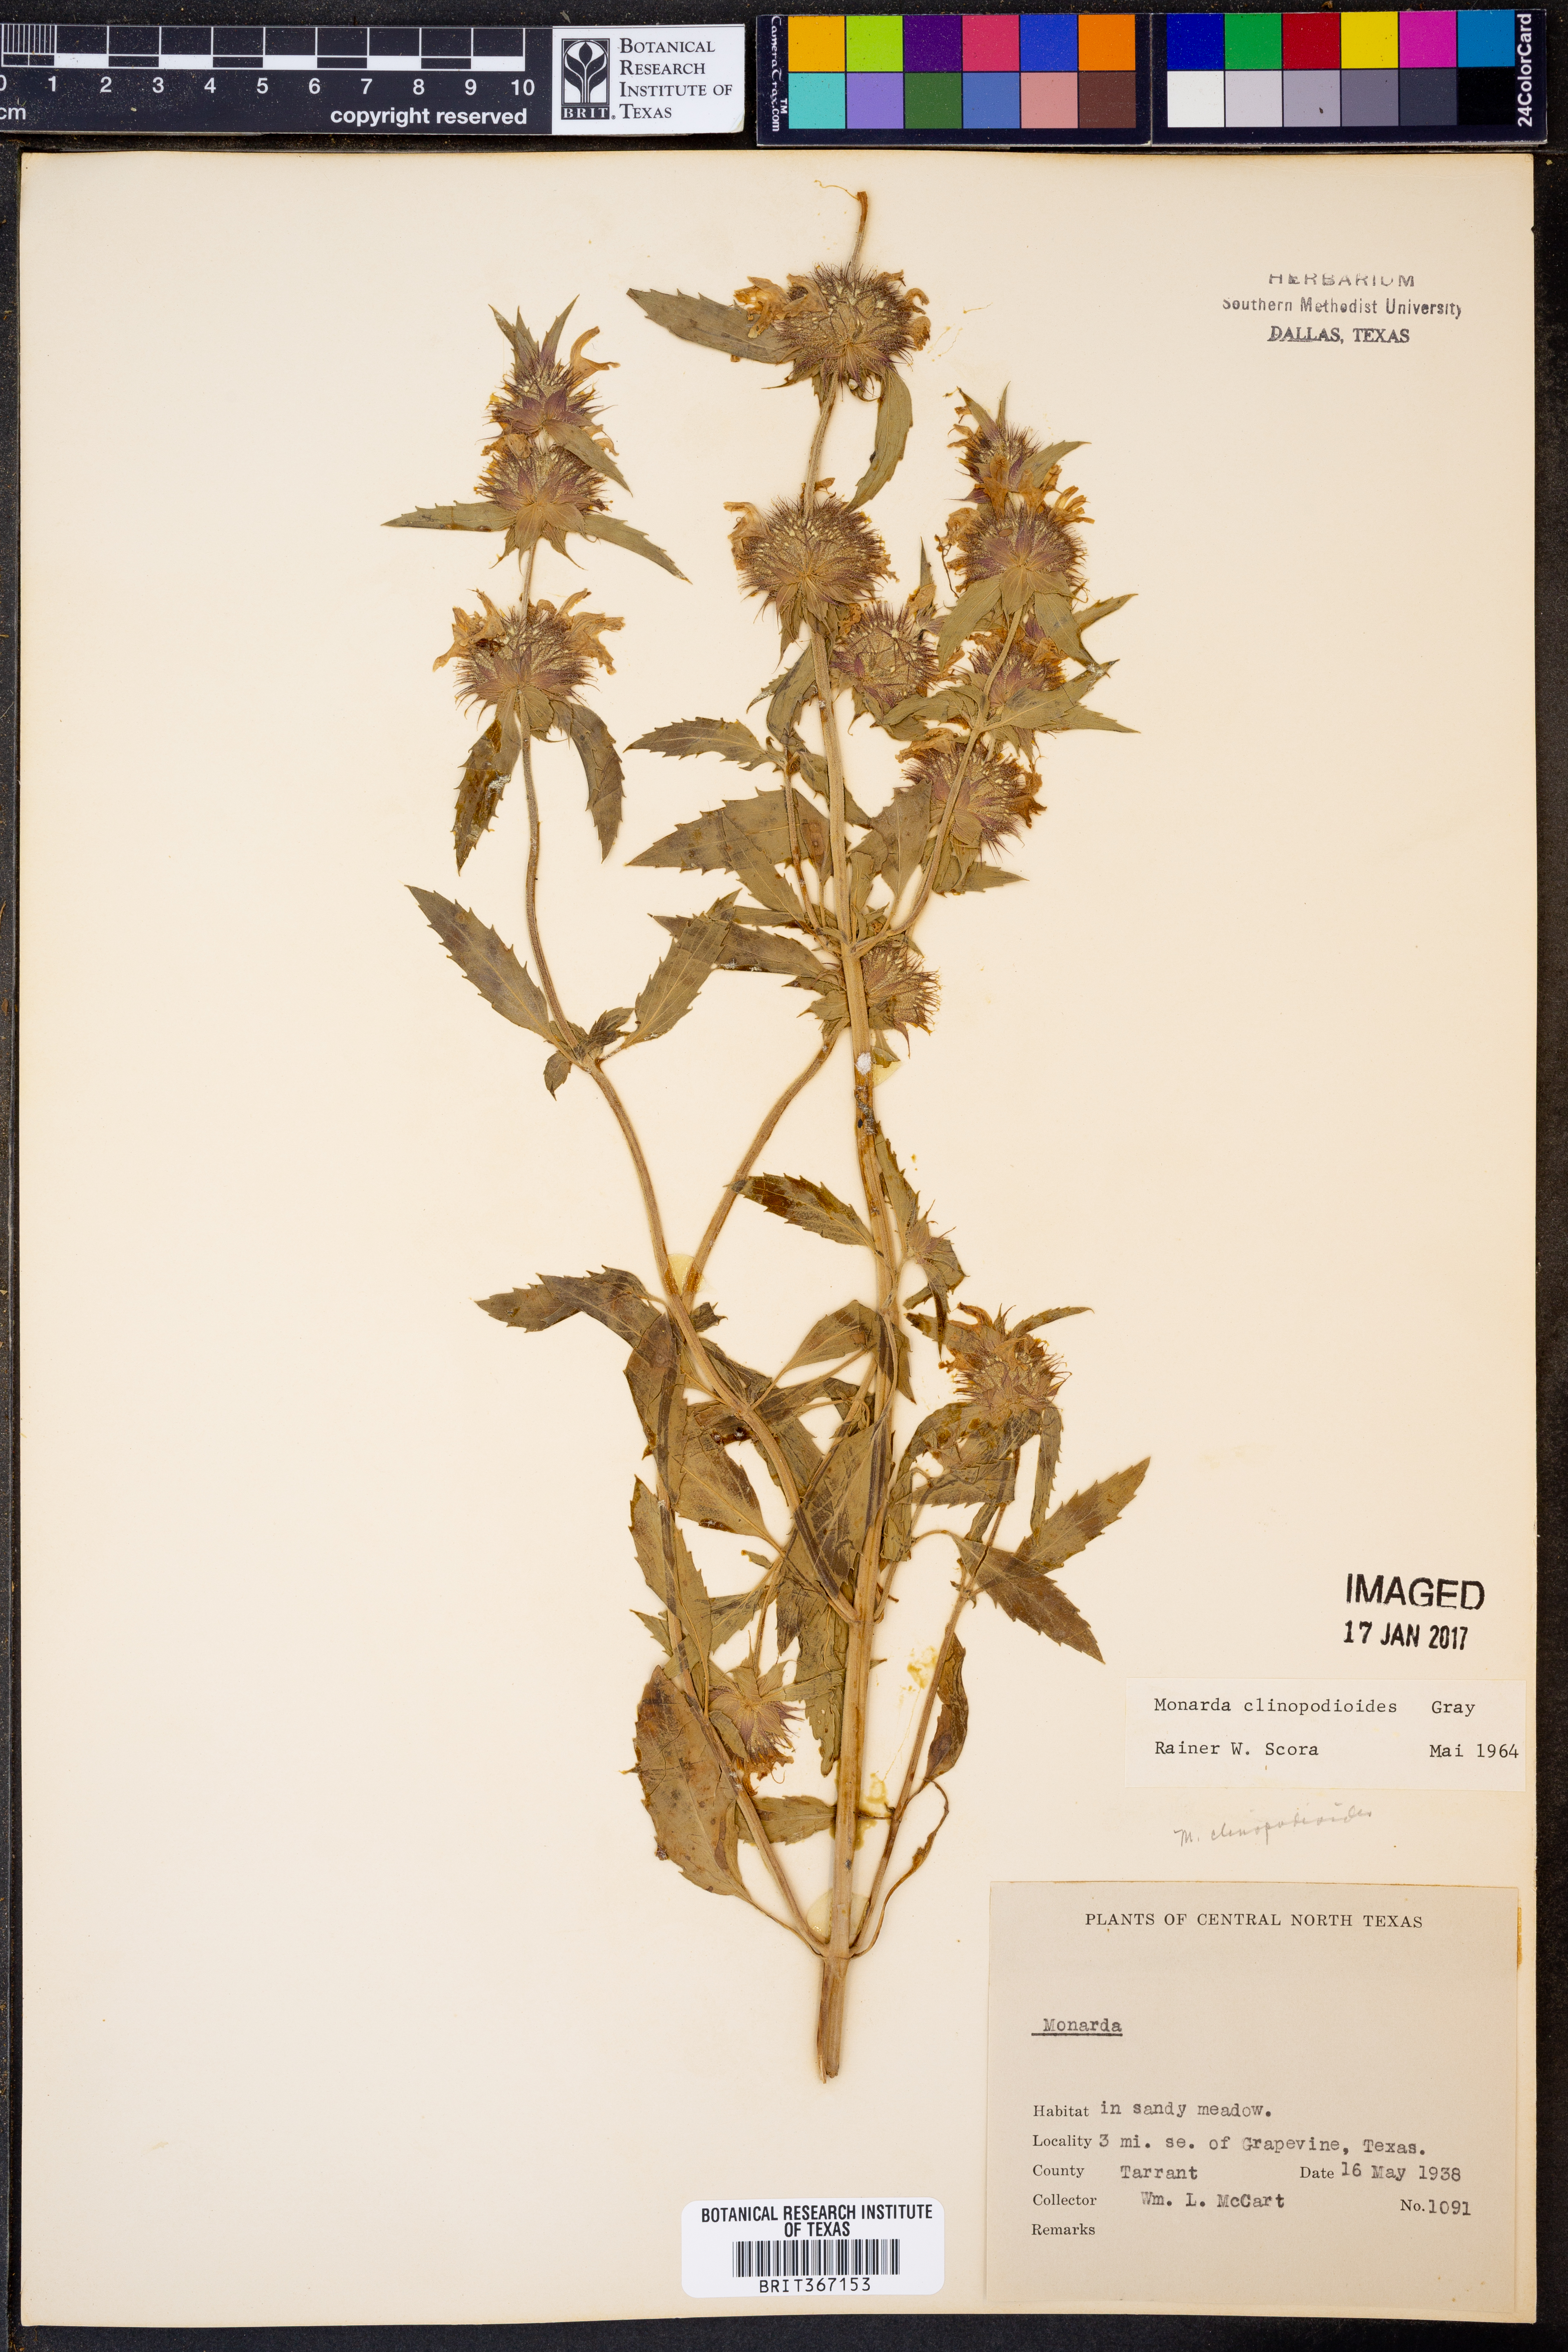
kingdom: Plantae
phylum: Tracheophyta
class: Magnoliopsida
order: Lamiales
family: Lamiaceae
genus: Monarda
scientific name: Monarda clinopodioides
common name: Basil beebalm
